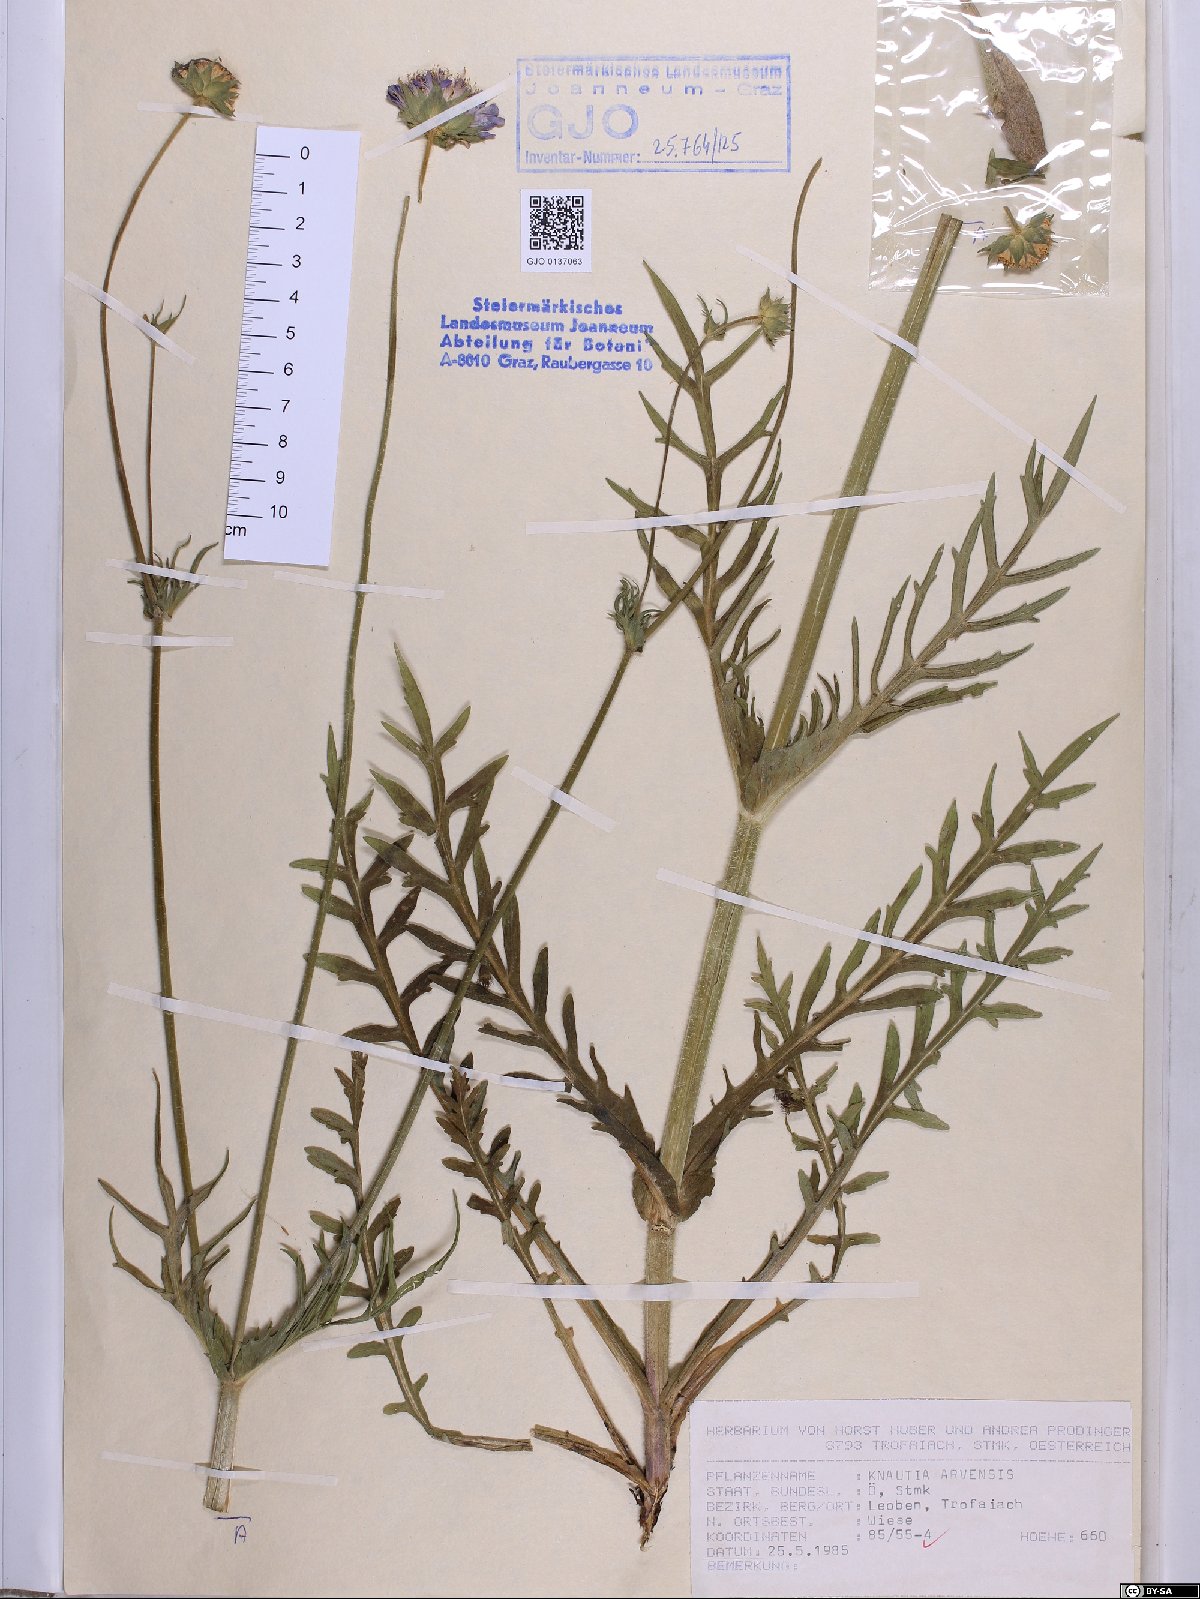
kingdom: Plantae
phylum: Tracheophyta
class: Magnoliopsida
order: Dipsacales
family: Caprifoliaceae
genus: Knautia
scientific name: Knautia arvensis
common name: Field scabiosa
